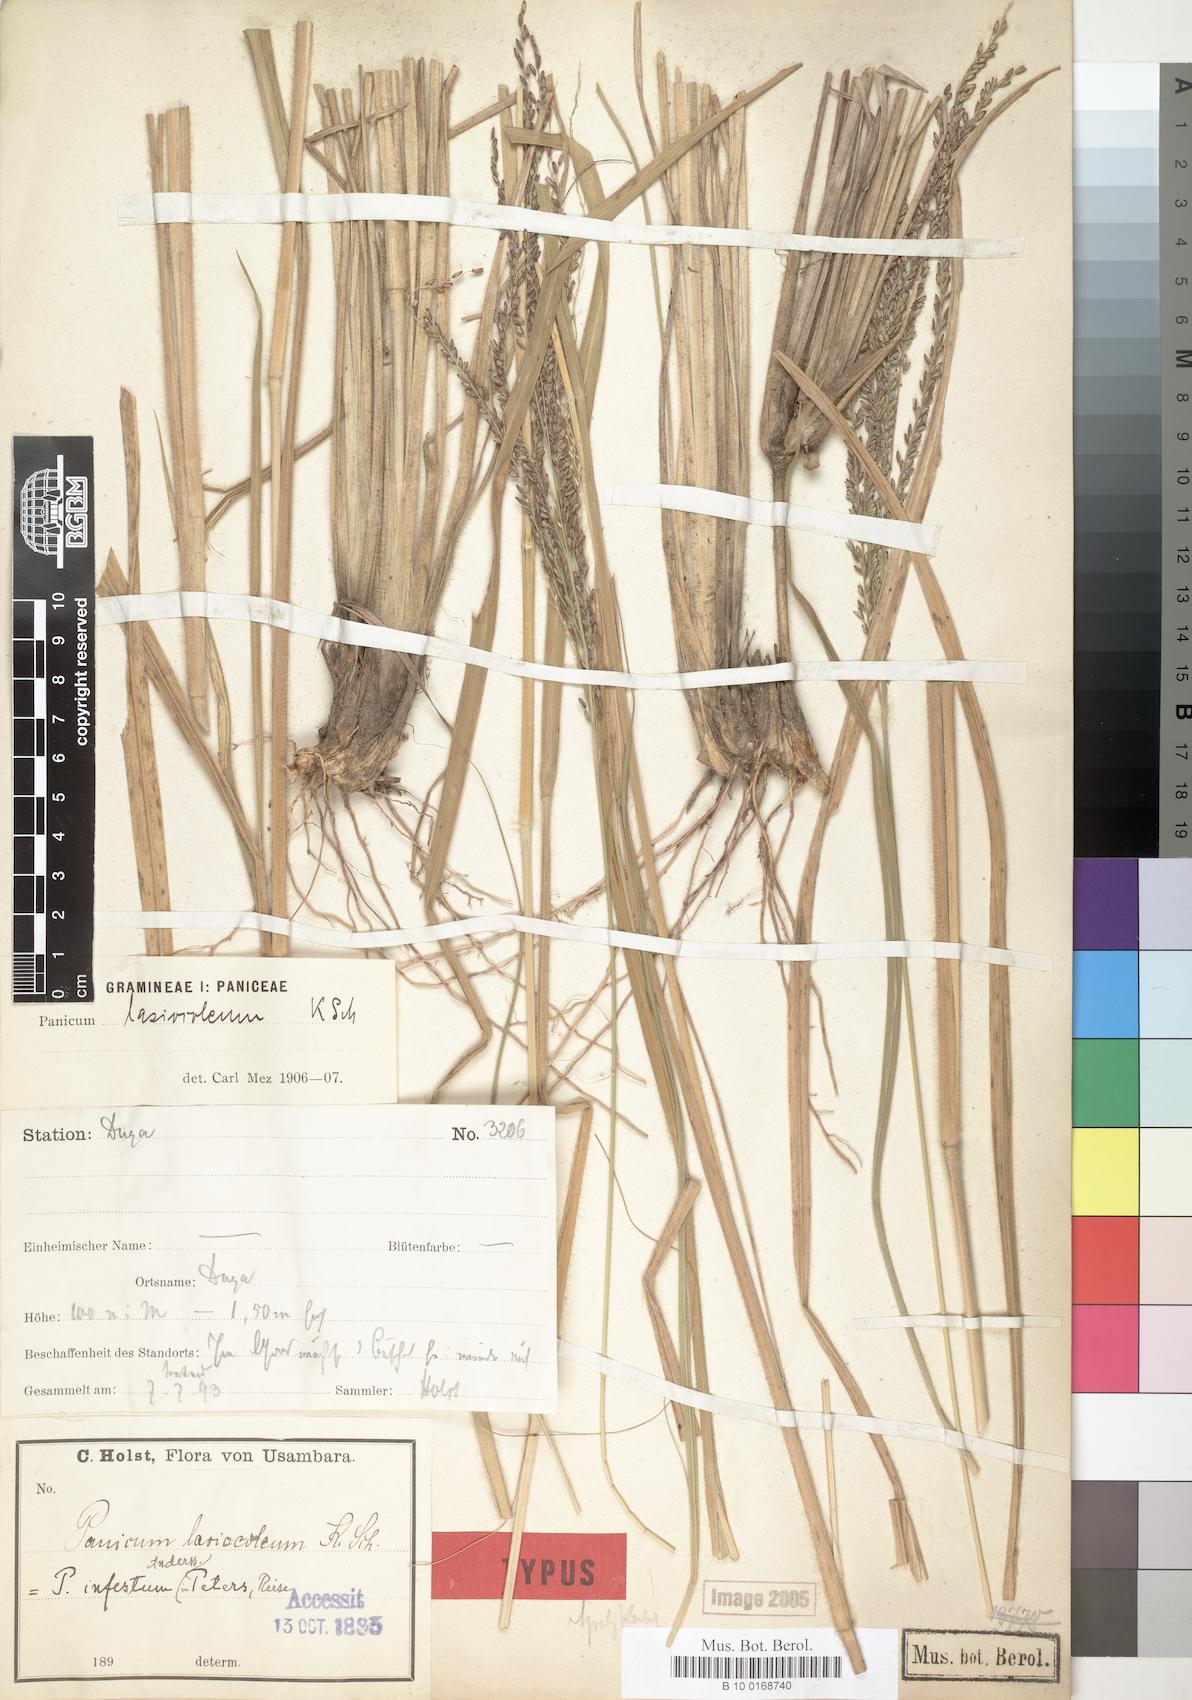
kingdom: Plantae
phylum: Tracheophyta
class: Liliopsida
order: Poales
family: Poaceae
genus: Panicum
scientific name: Panicum infestum
